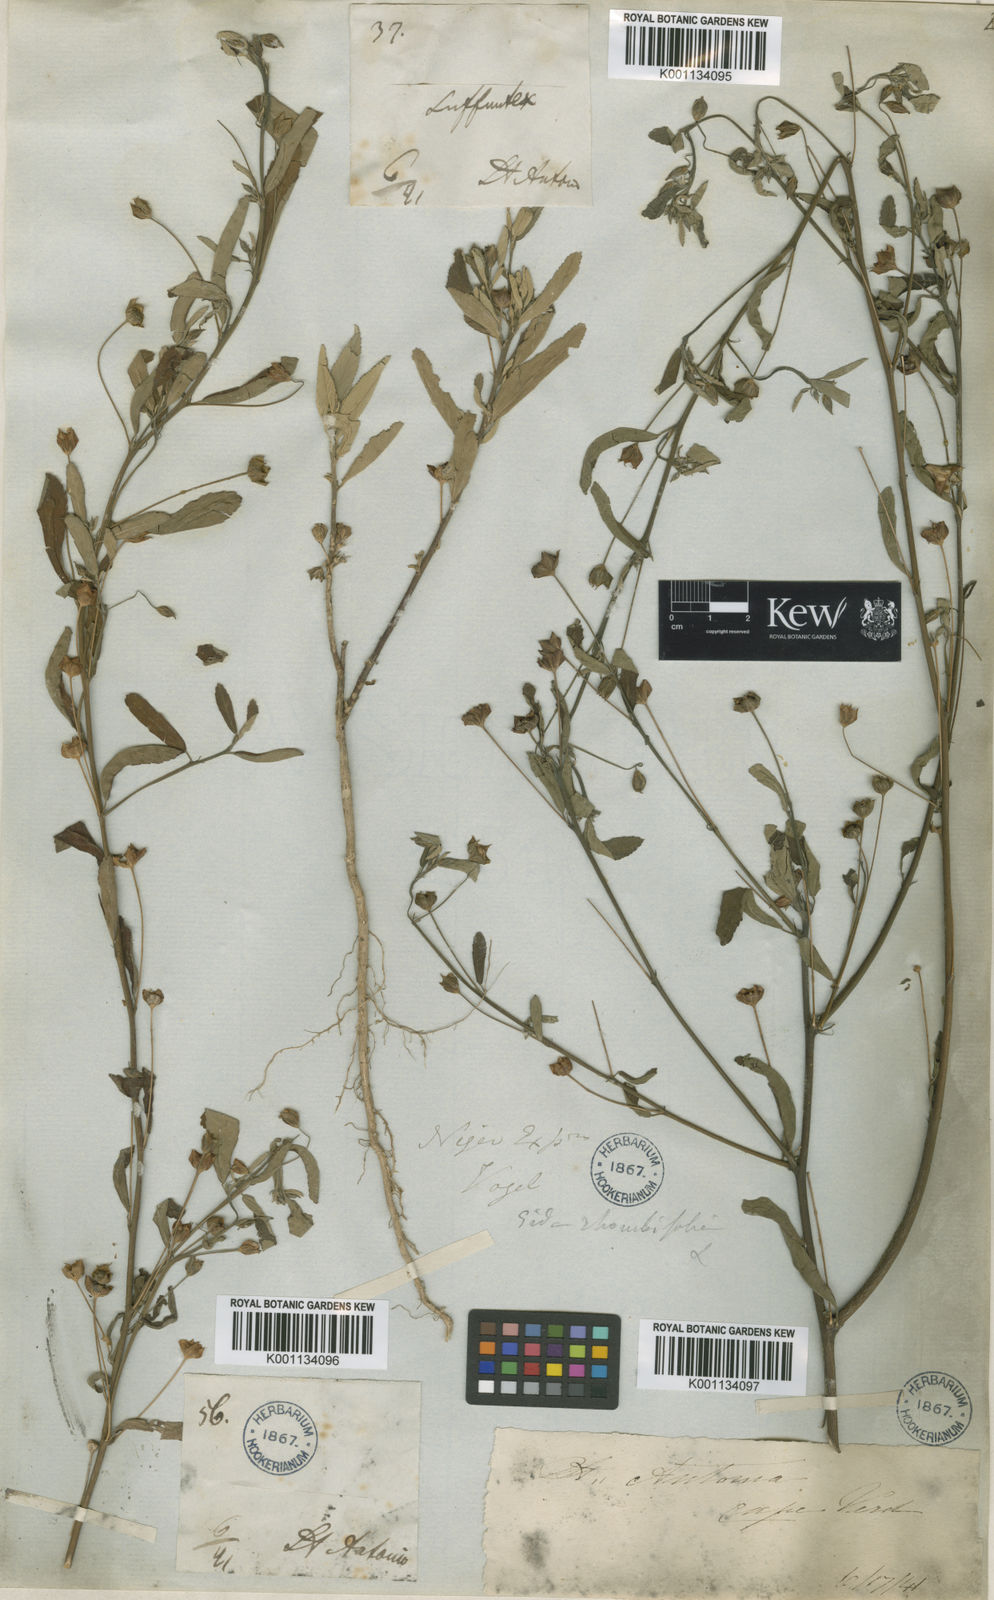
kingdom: Plantae
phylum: Tracheophyta
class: Magnoliopsida
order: Malvales
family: Malvaceae
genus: Sida
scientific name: Sida acuta
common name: Common wireweed
